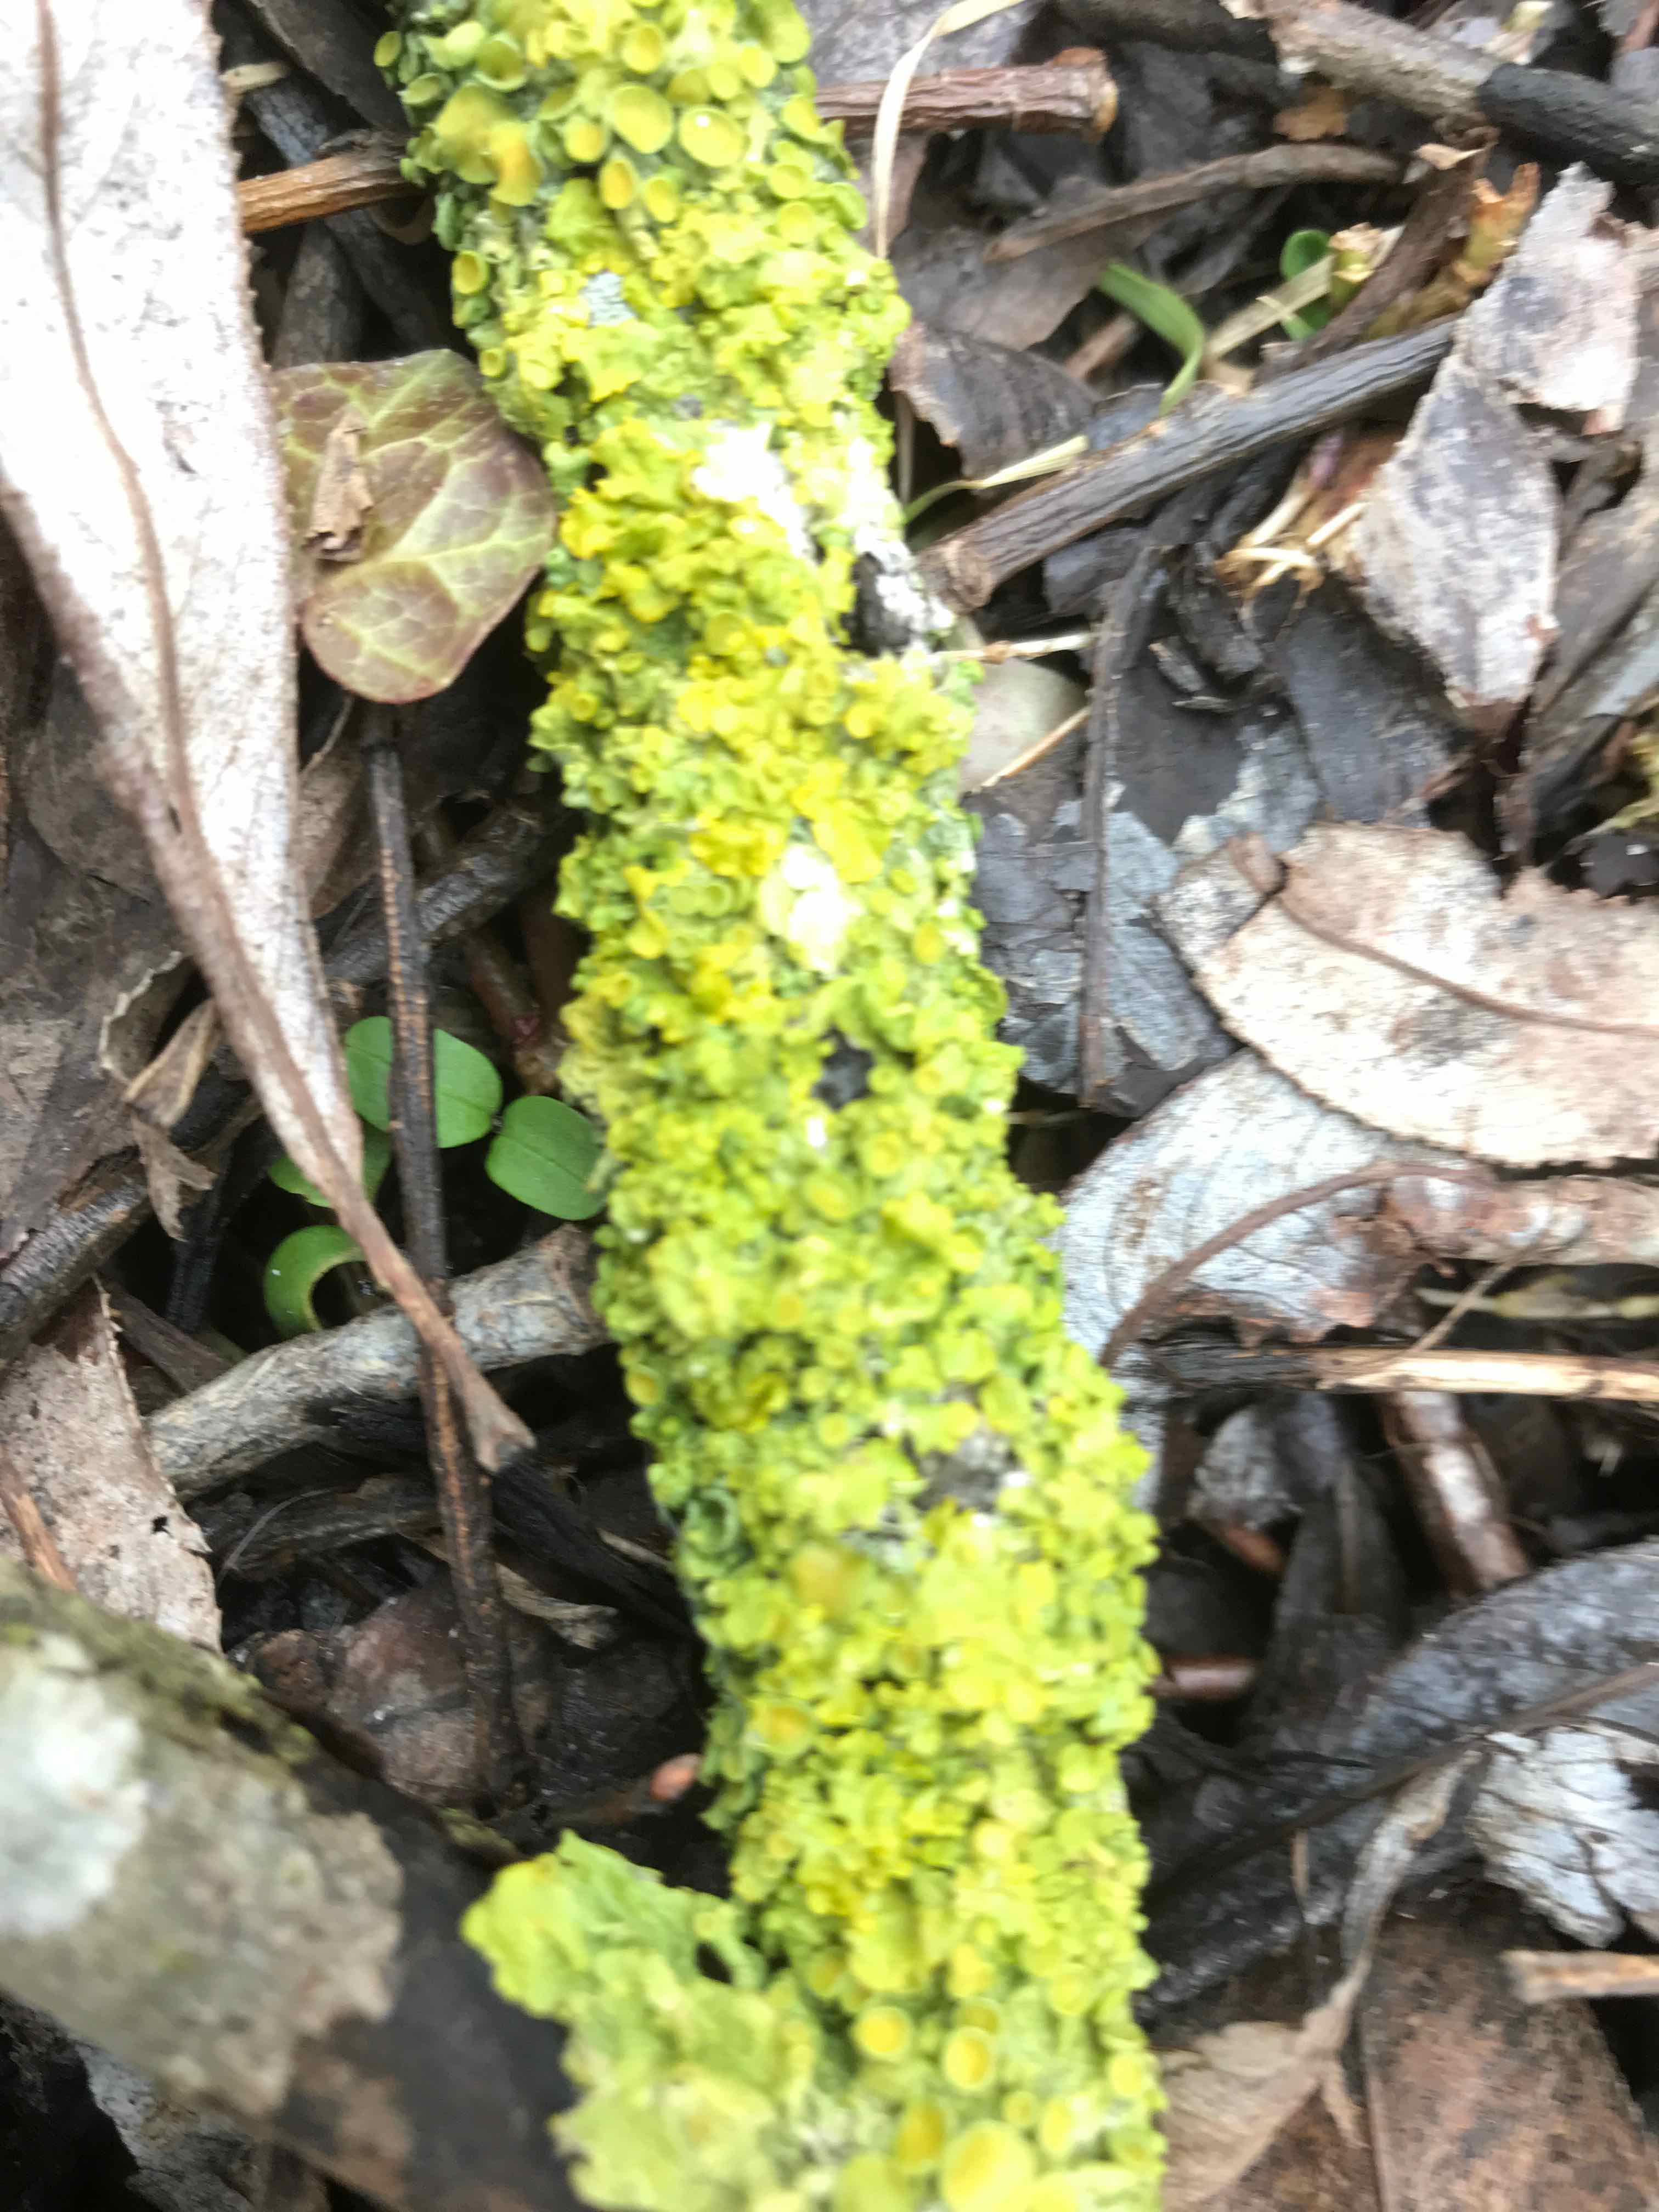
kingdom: Fungi
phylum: Ascomycota
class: Lecanoromycetes
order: Teloschistales
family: Teloschistaceae
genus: Xanthoria
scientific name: Xanthoria parietina
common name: almindelig væggelav
